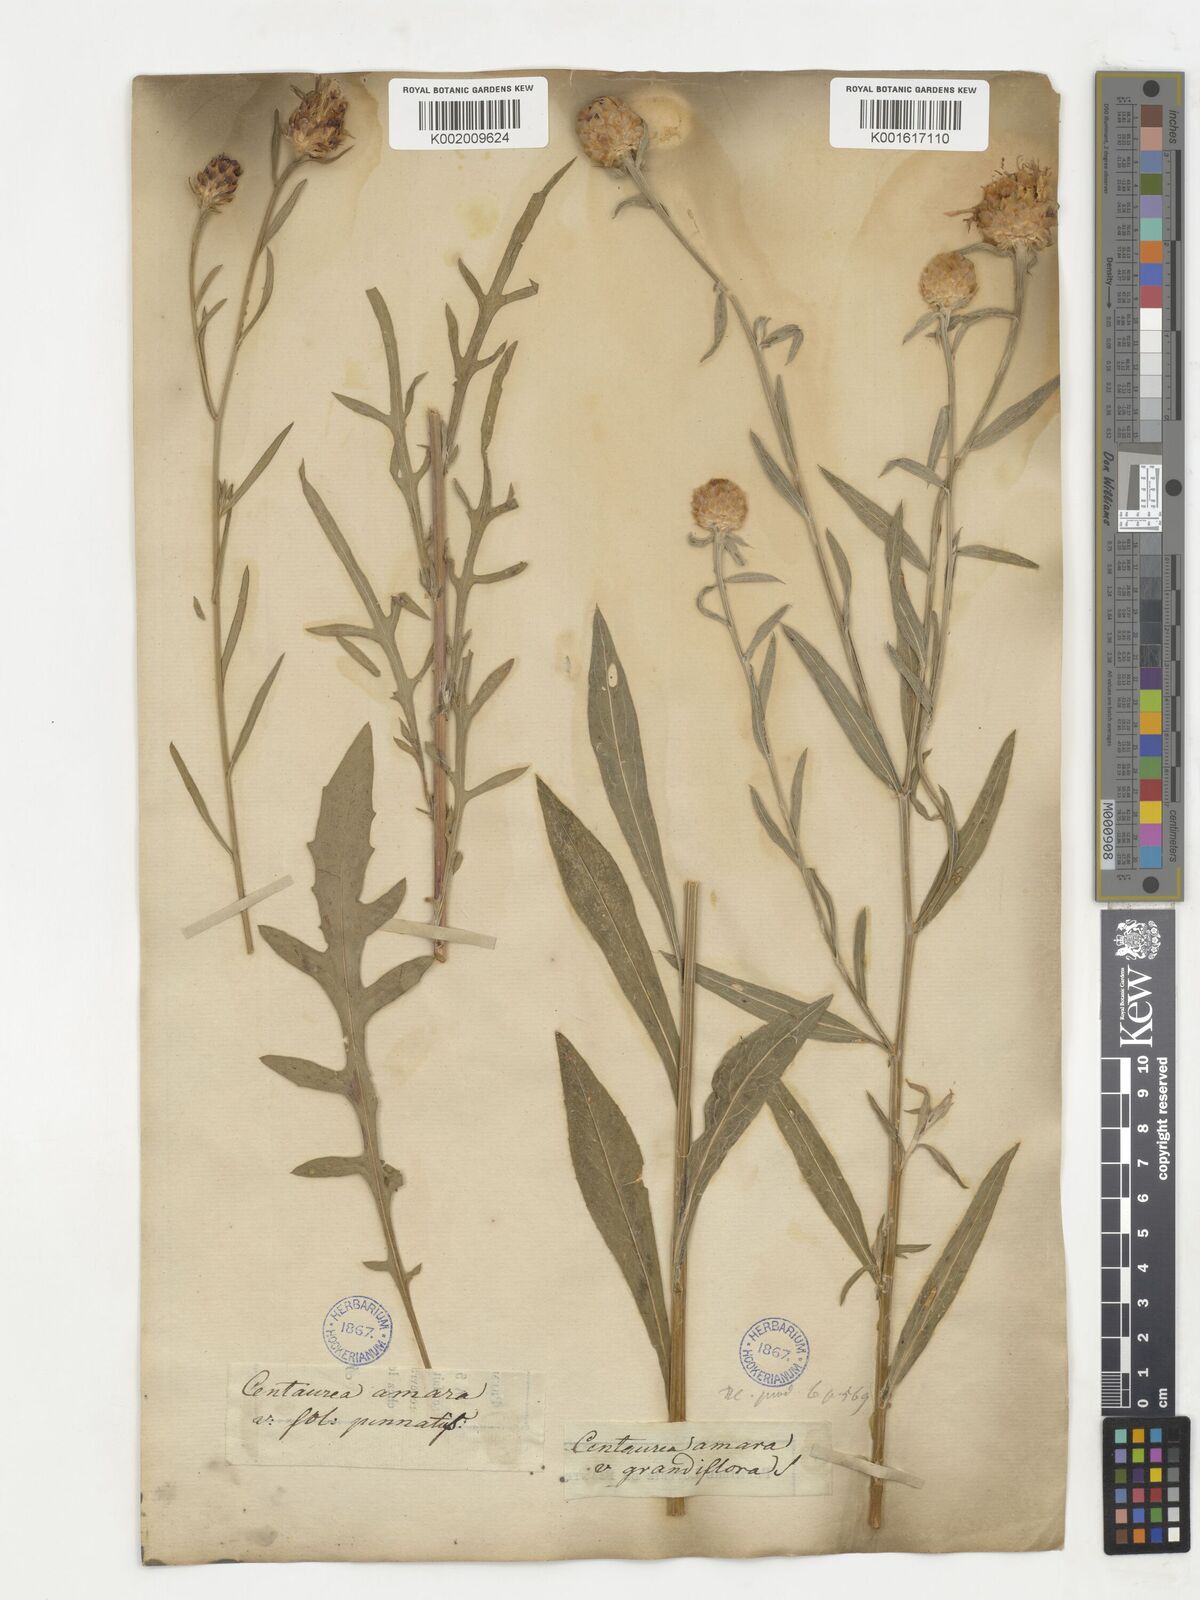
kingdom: Plantae
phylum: Tracheophyta
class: Magnoliopsida
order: Asterales
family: Asteraceae
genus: Psephellus
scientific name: Psephellus trinervius
